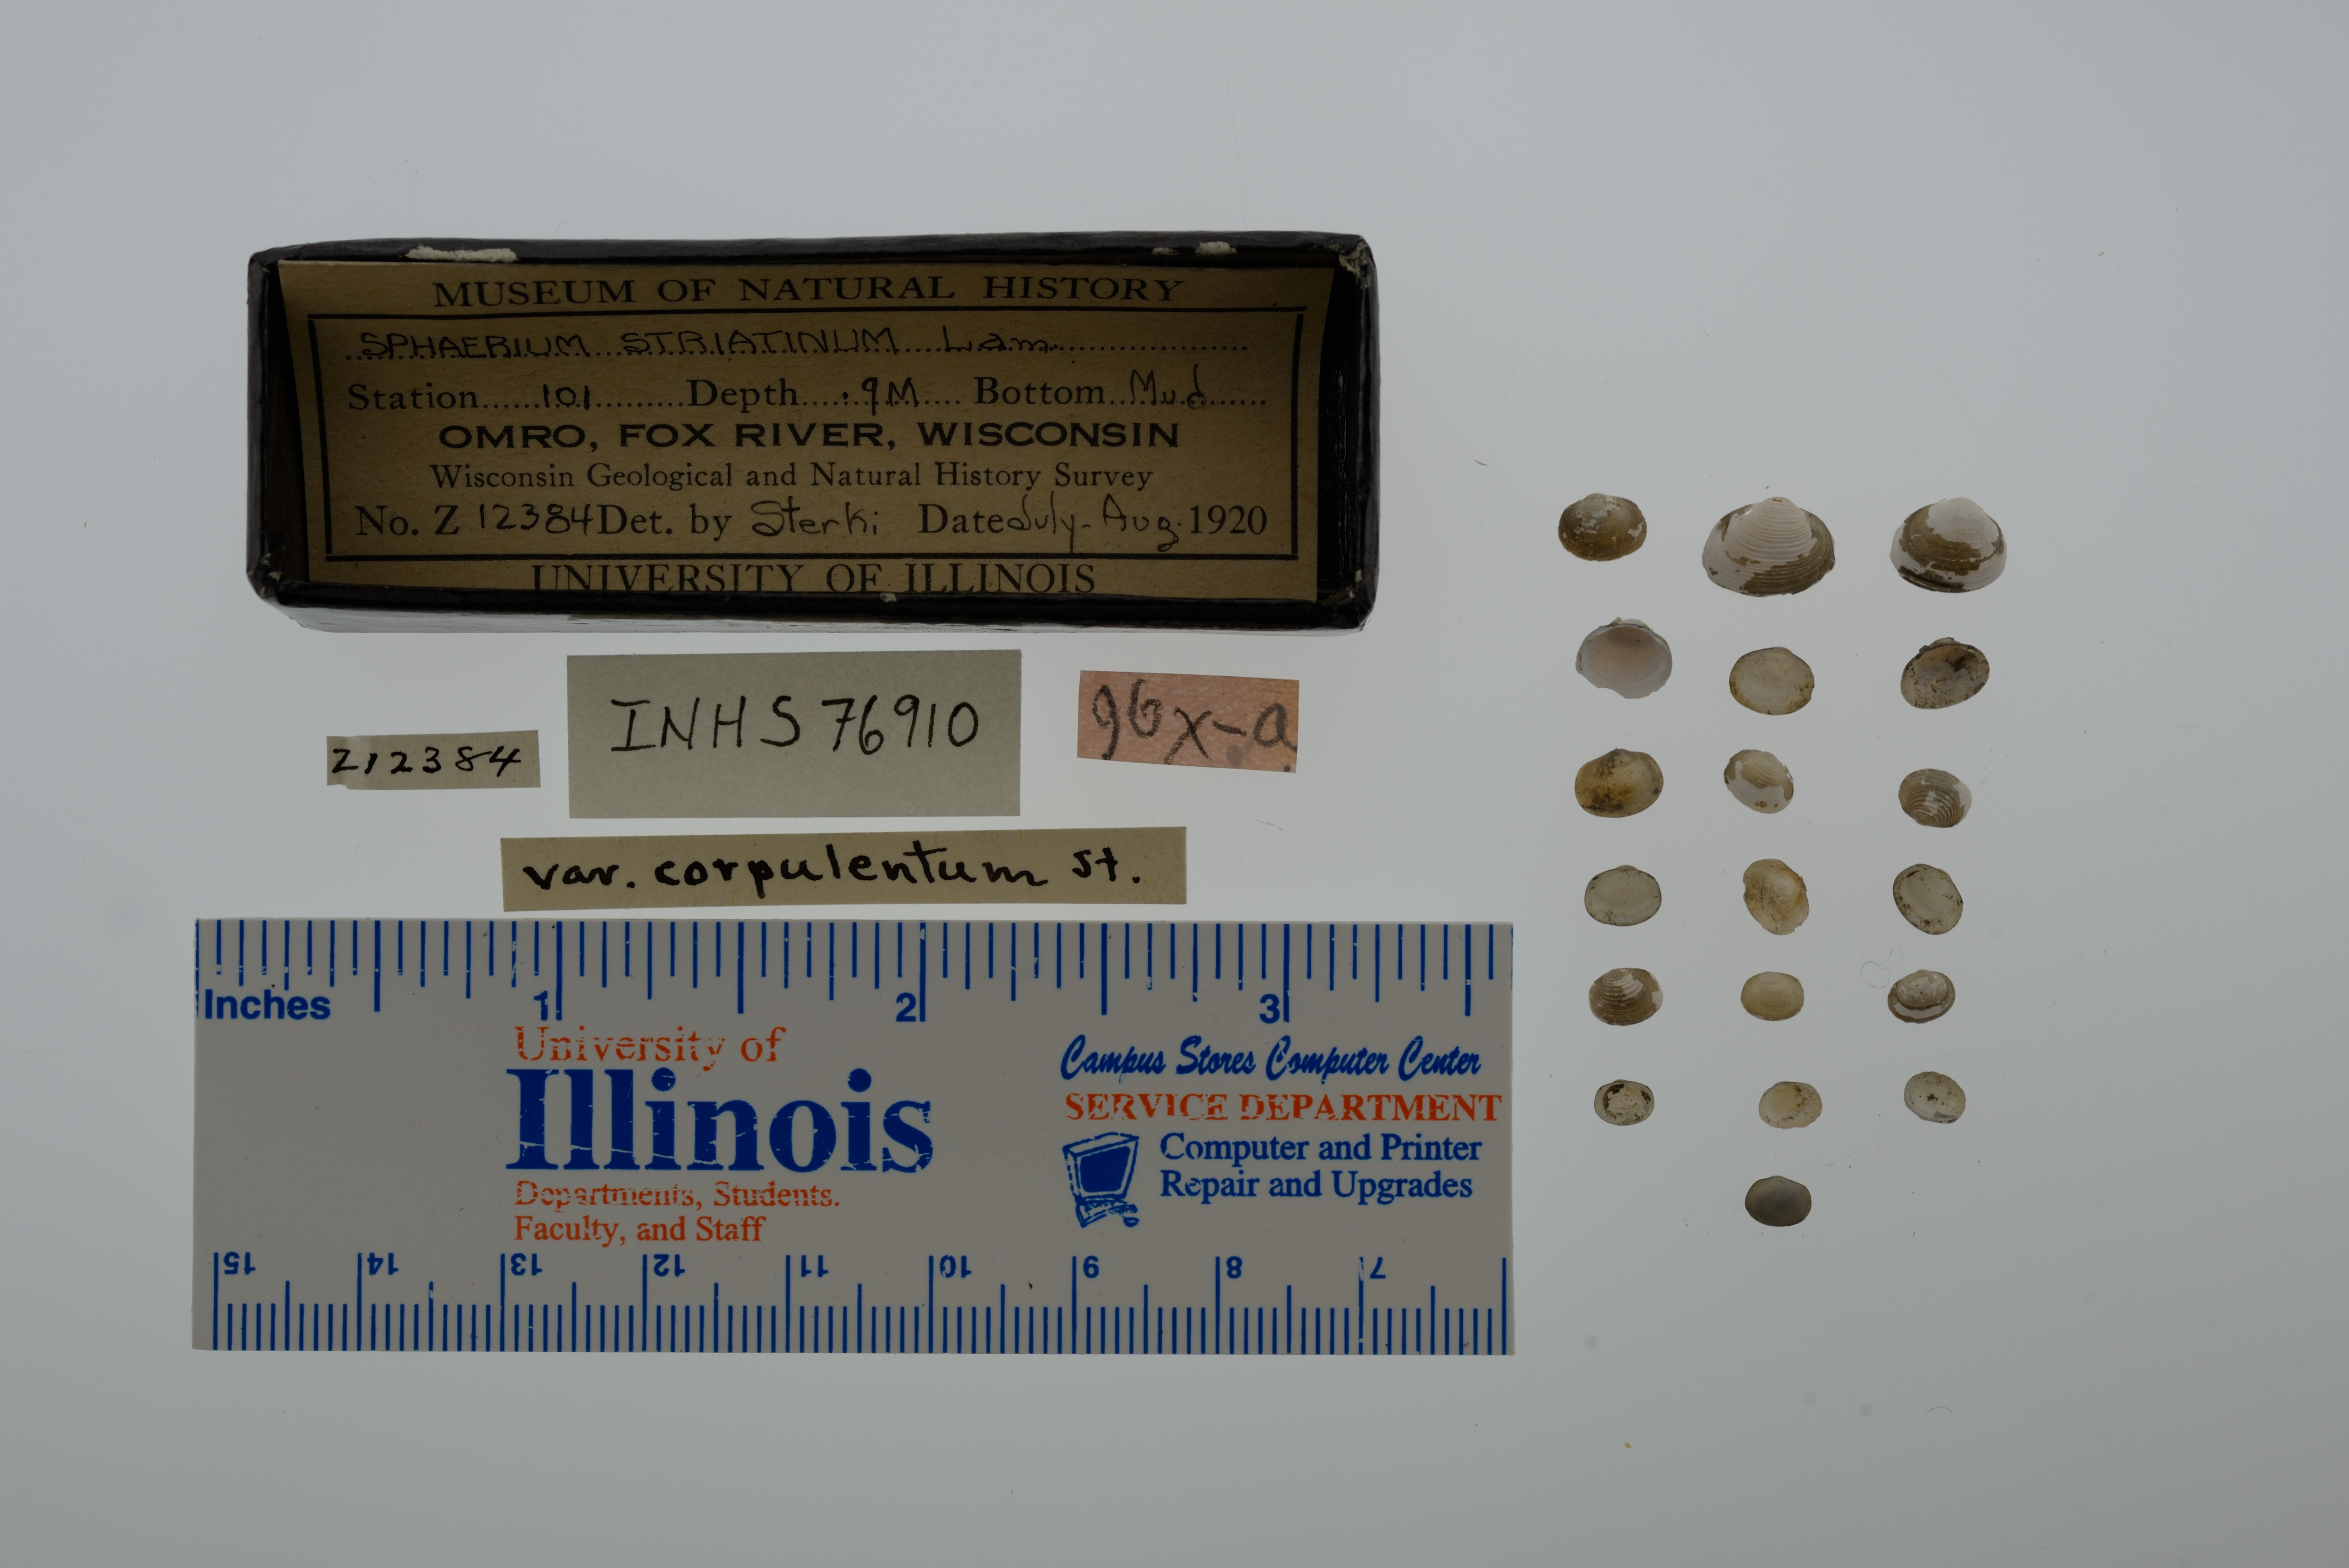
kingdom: Animalia
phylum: Mollusca
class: Bivalvia
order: Sphaeriida
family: Sphaeriidae
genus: Sphaerium
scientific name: Sphaerium striatinum
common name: Striated fingernailclam
